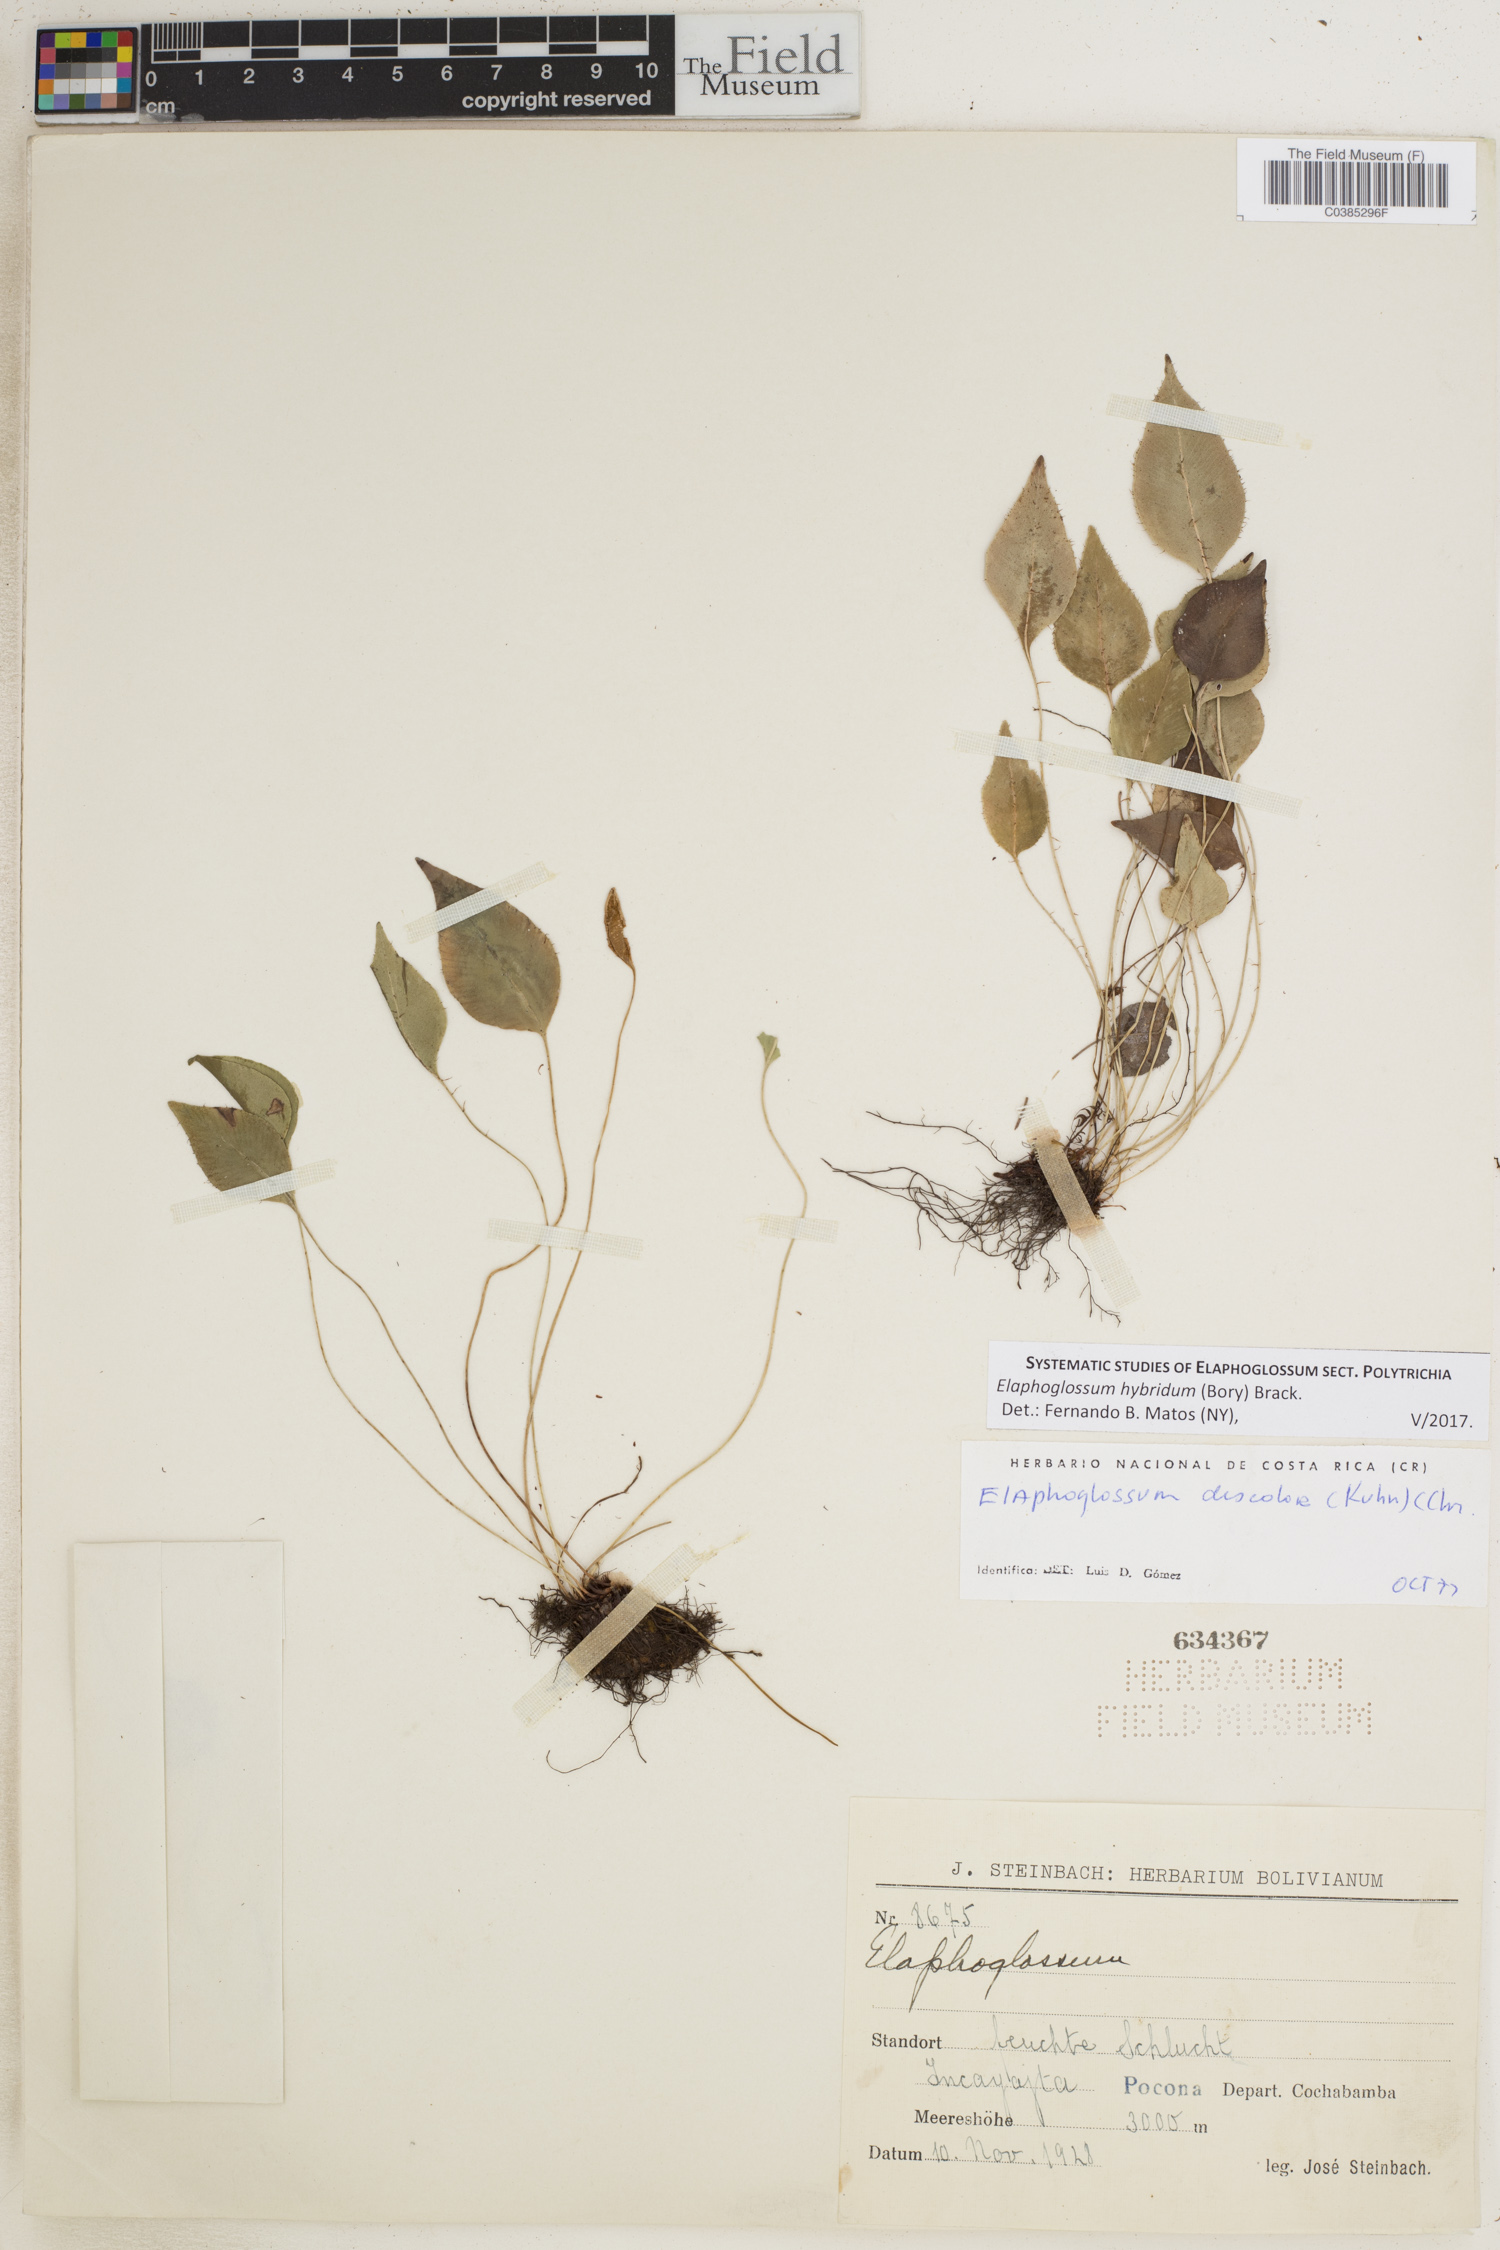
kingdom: Plantae
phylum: Tracheophyta
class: Polypodiopsida
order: Polypodiales
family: Dryopteridaceae
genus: Elaphoglossum
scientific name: Elaphoglossum hybridum
